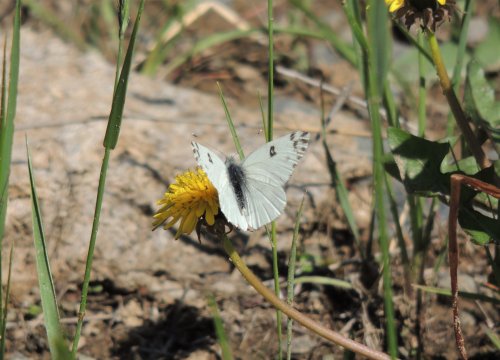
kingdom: Animalia
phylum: Arthropoda
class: Insecta
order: Lepidoptera
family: Pieridae
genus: Pontia
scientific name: Pontia beckerii
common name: Becker's White
